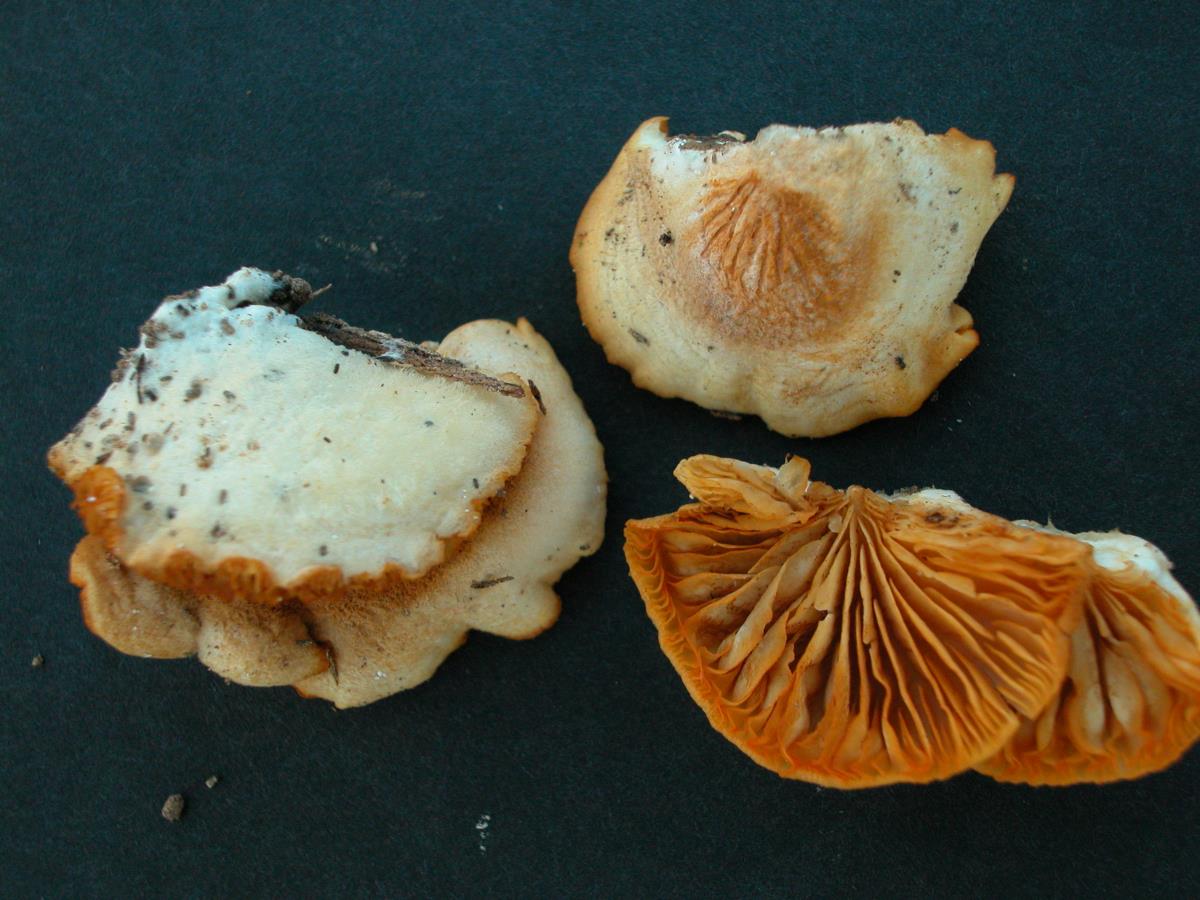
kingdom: Fungi
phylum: Basidiomycota
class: Agaricomycetes
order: Agaricales
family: Crepidotaceae
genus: Crepidotus
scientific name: Crepidotus
